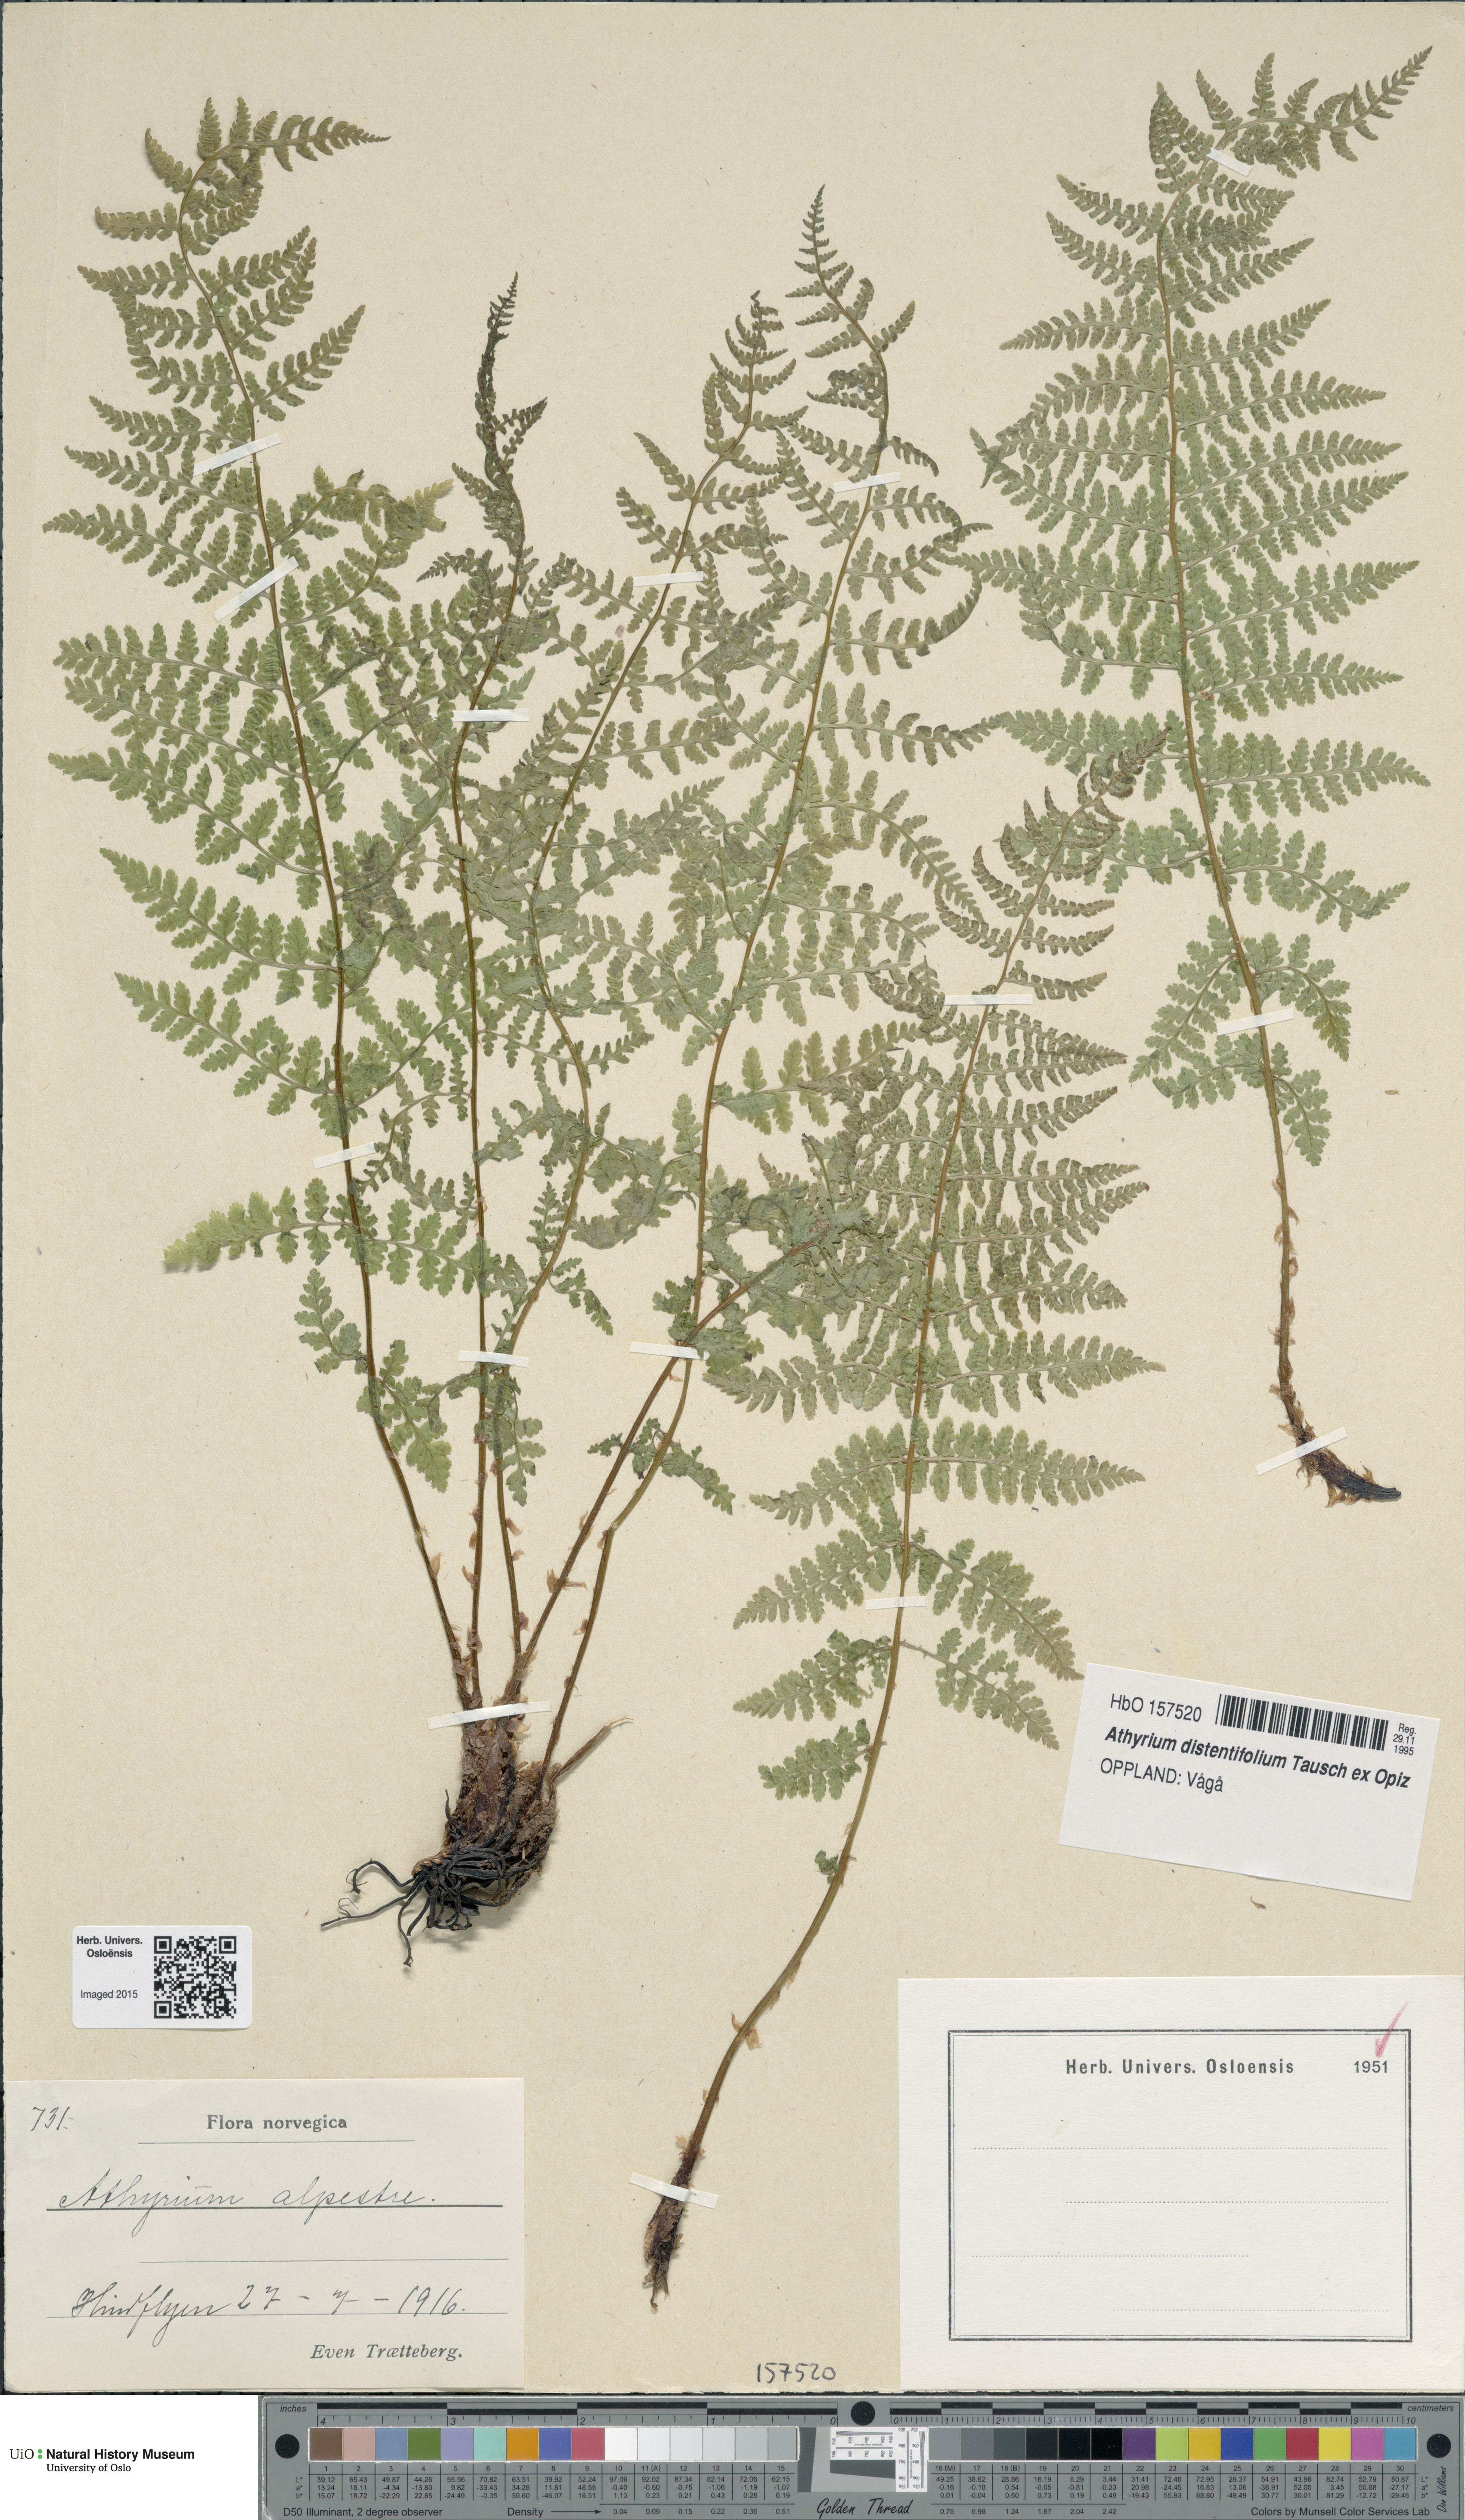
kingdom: Plantae
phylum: Tracheophyta
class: Polypodiopsida
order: Polypodiales
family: Athyriaceae
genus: Pseudathyrium
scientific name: Pseudathyrium alpestre
